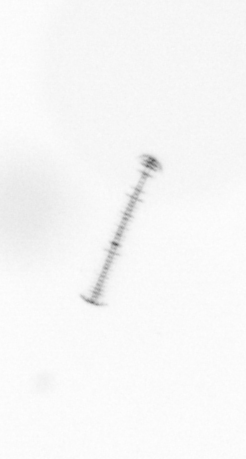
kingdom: Chromista
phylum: Ochrophyta
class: Bacillariophyceae
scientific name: Bacillariophyceae
